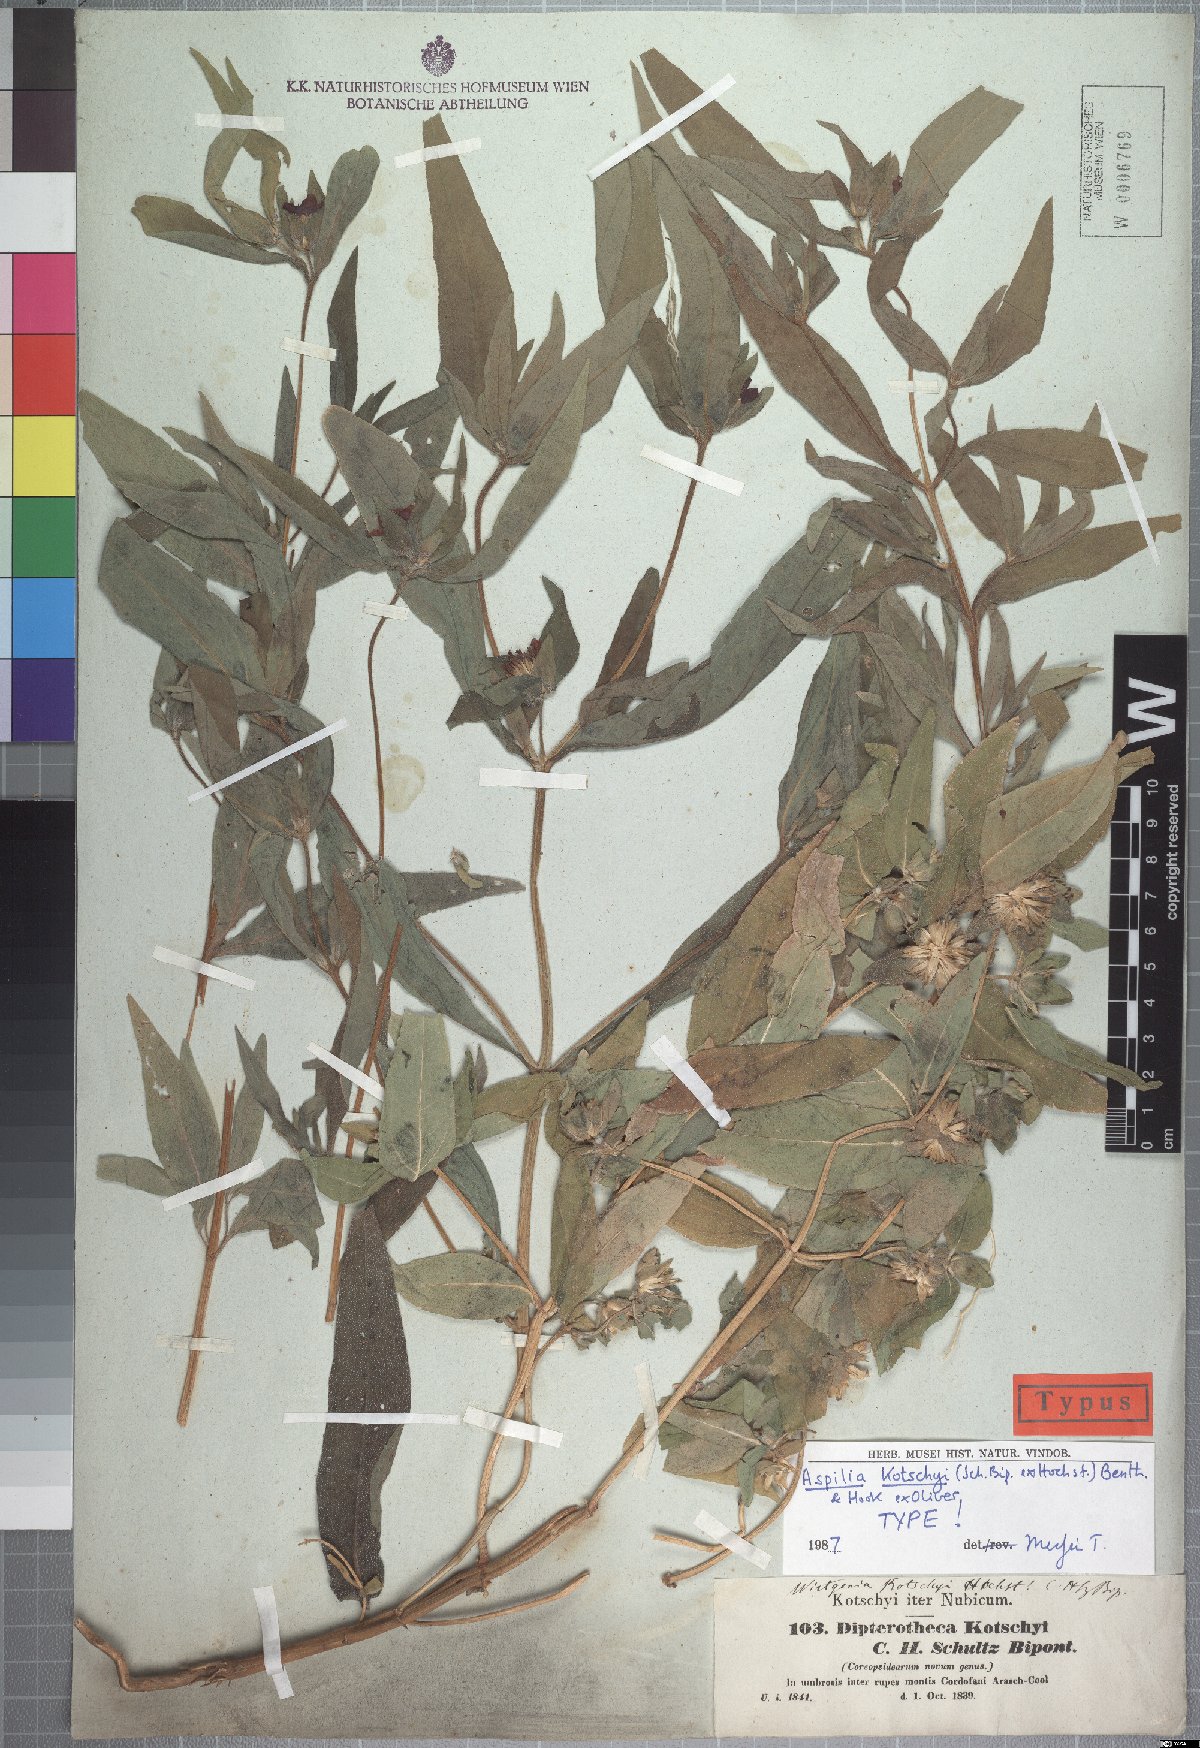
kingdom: Plantae
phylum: Tracheophyta
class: Magnoliopsida
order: Asterales
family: Asteraceae
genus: Aspilia
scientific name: Aspilia kotschyi
